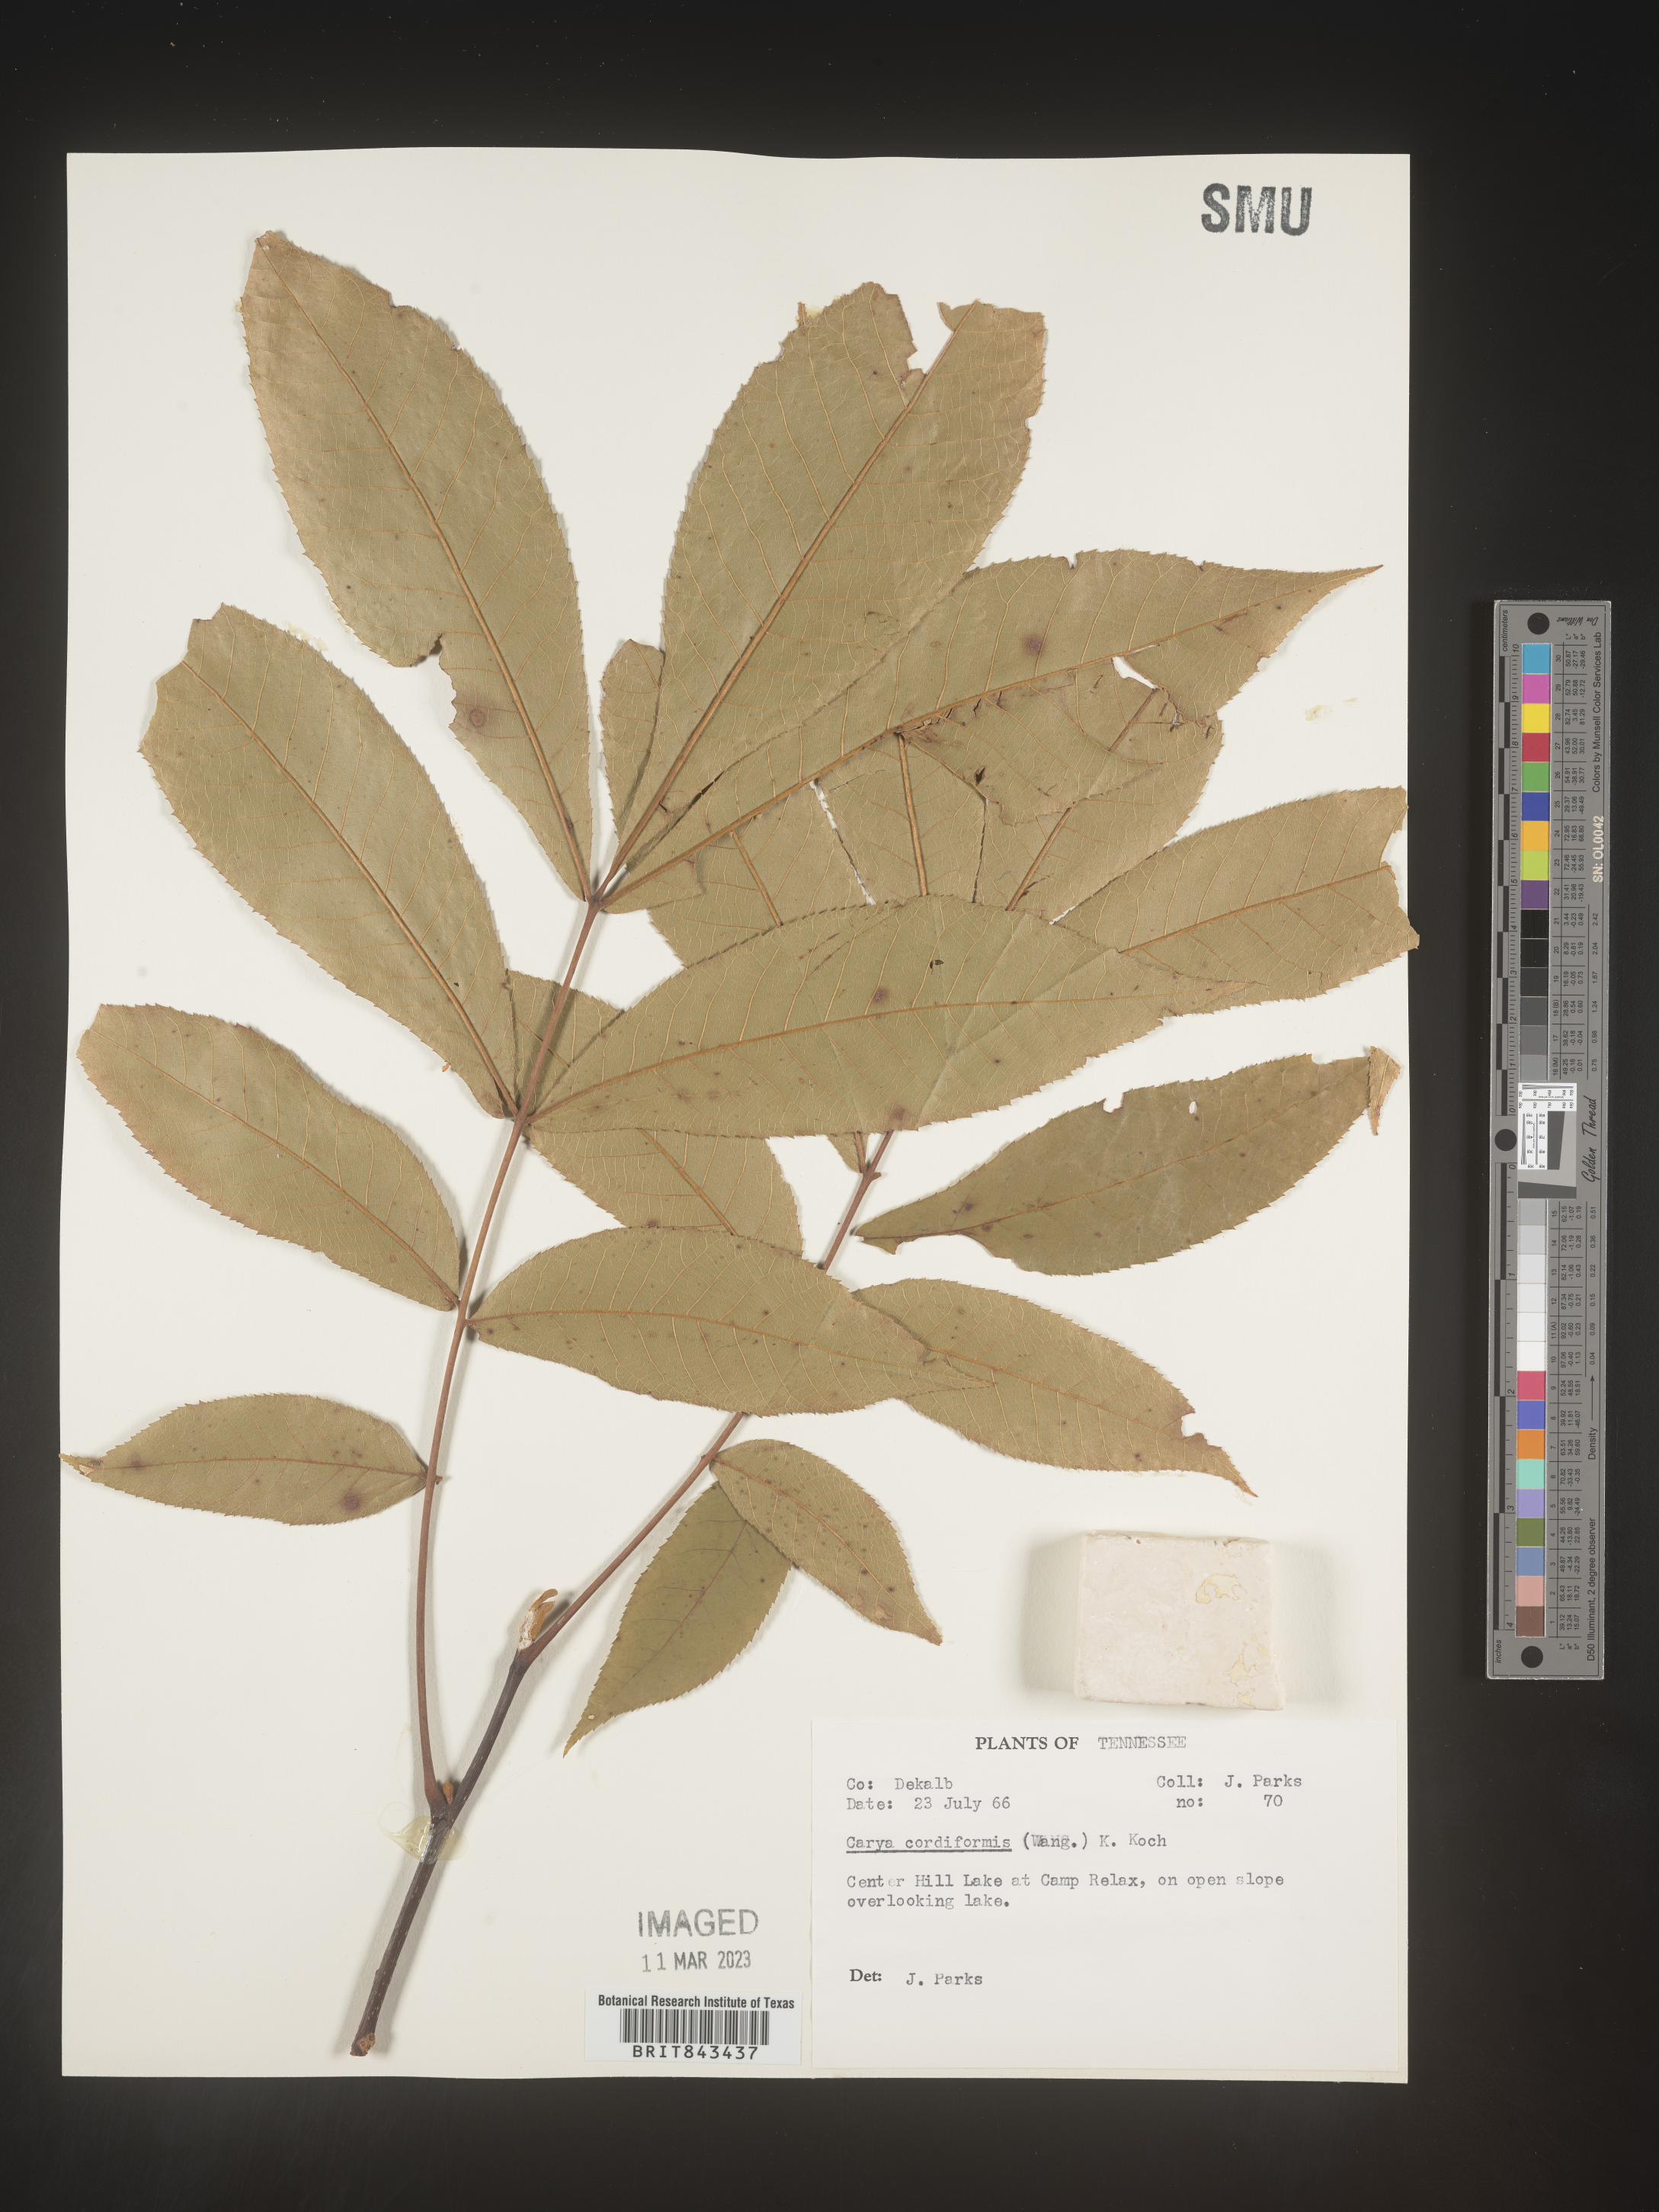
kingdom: Plantae
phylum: Tracheophyta
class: Magnoliopsida
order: Fagales
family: Juglandaceae
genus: Carya
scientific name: Carya cordiformis
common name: Bitternut hickory
